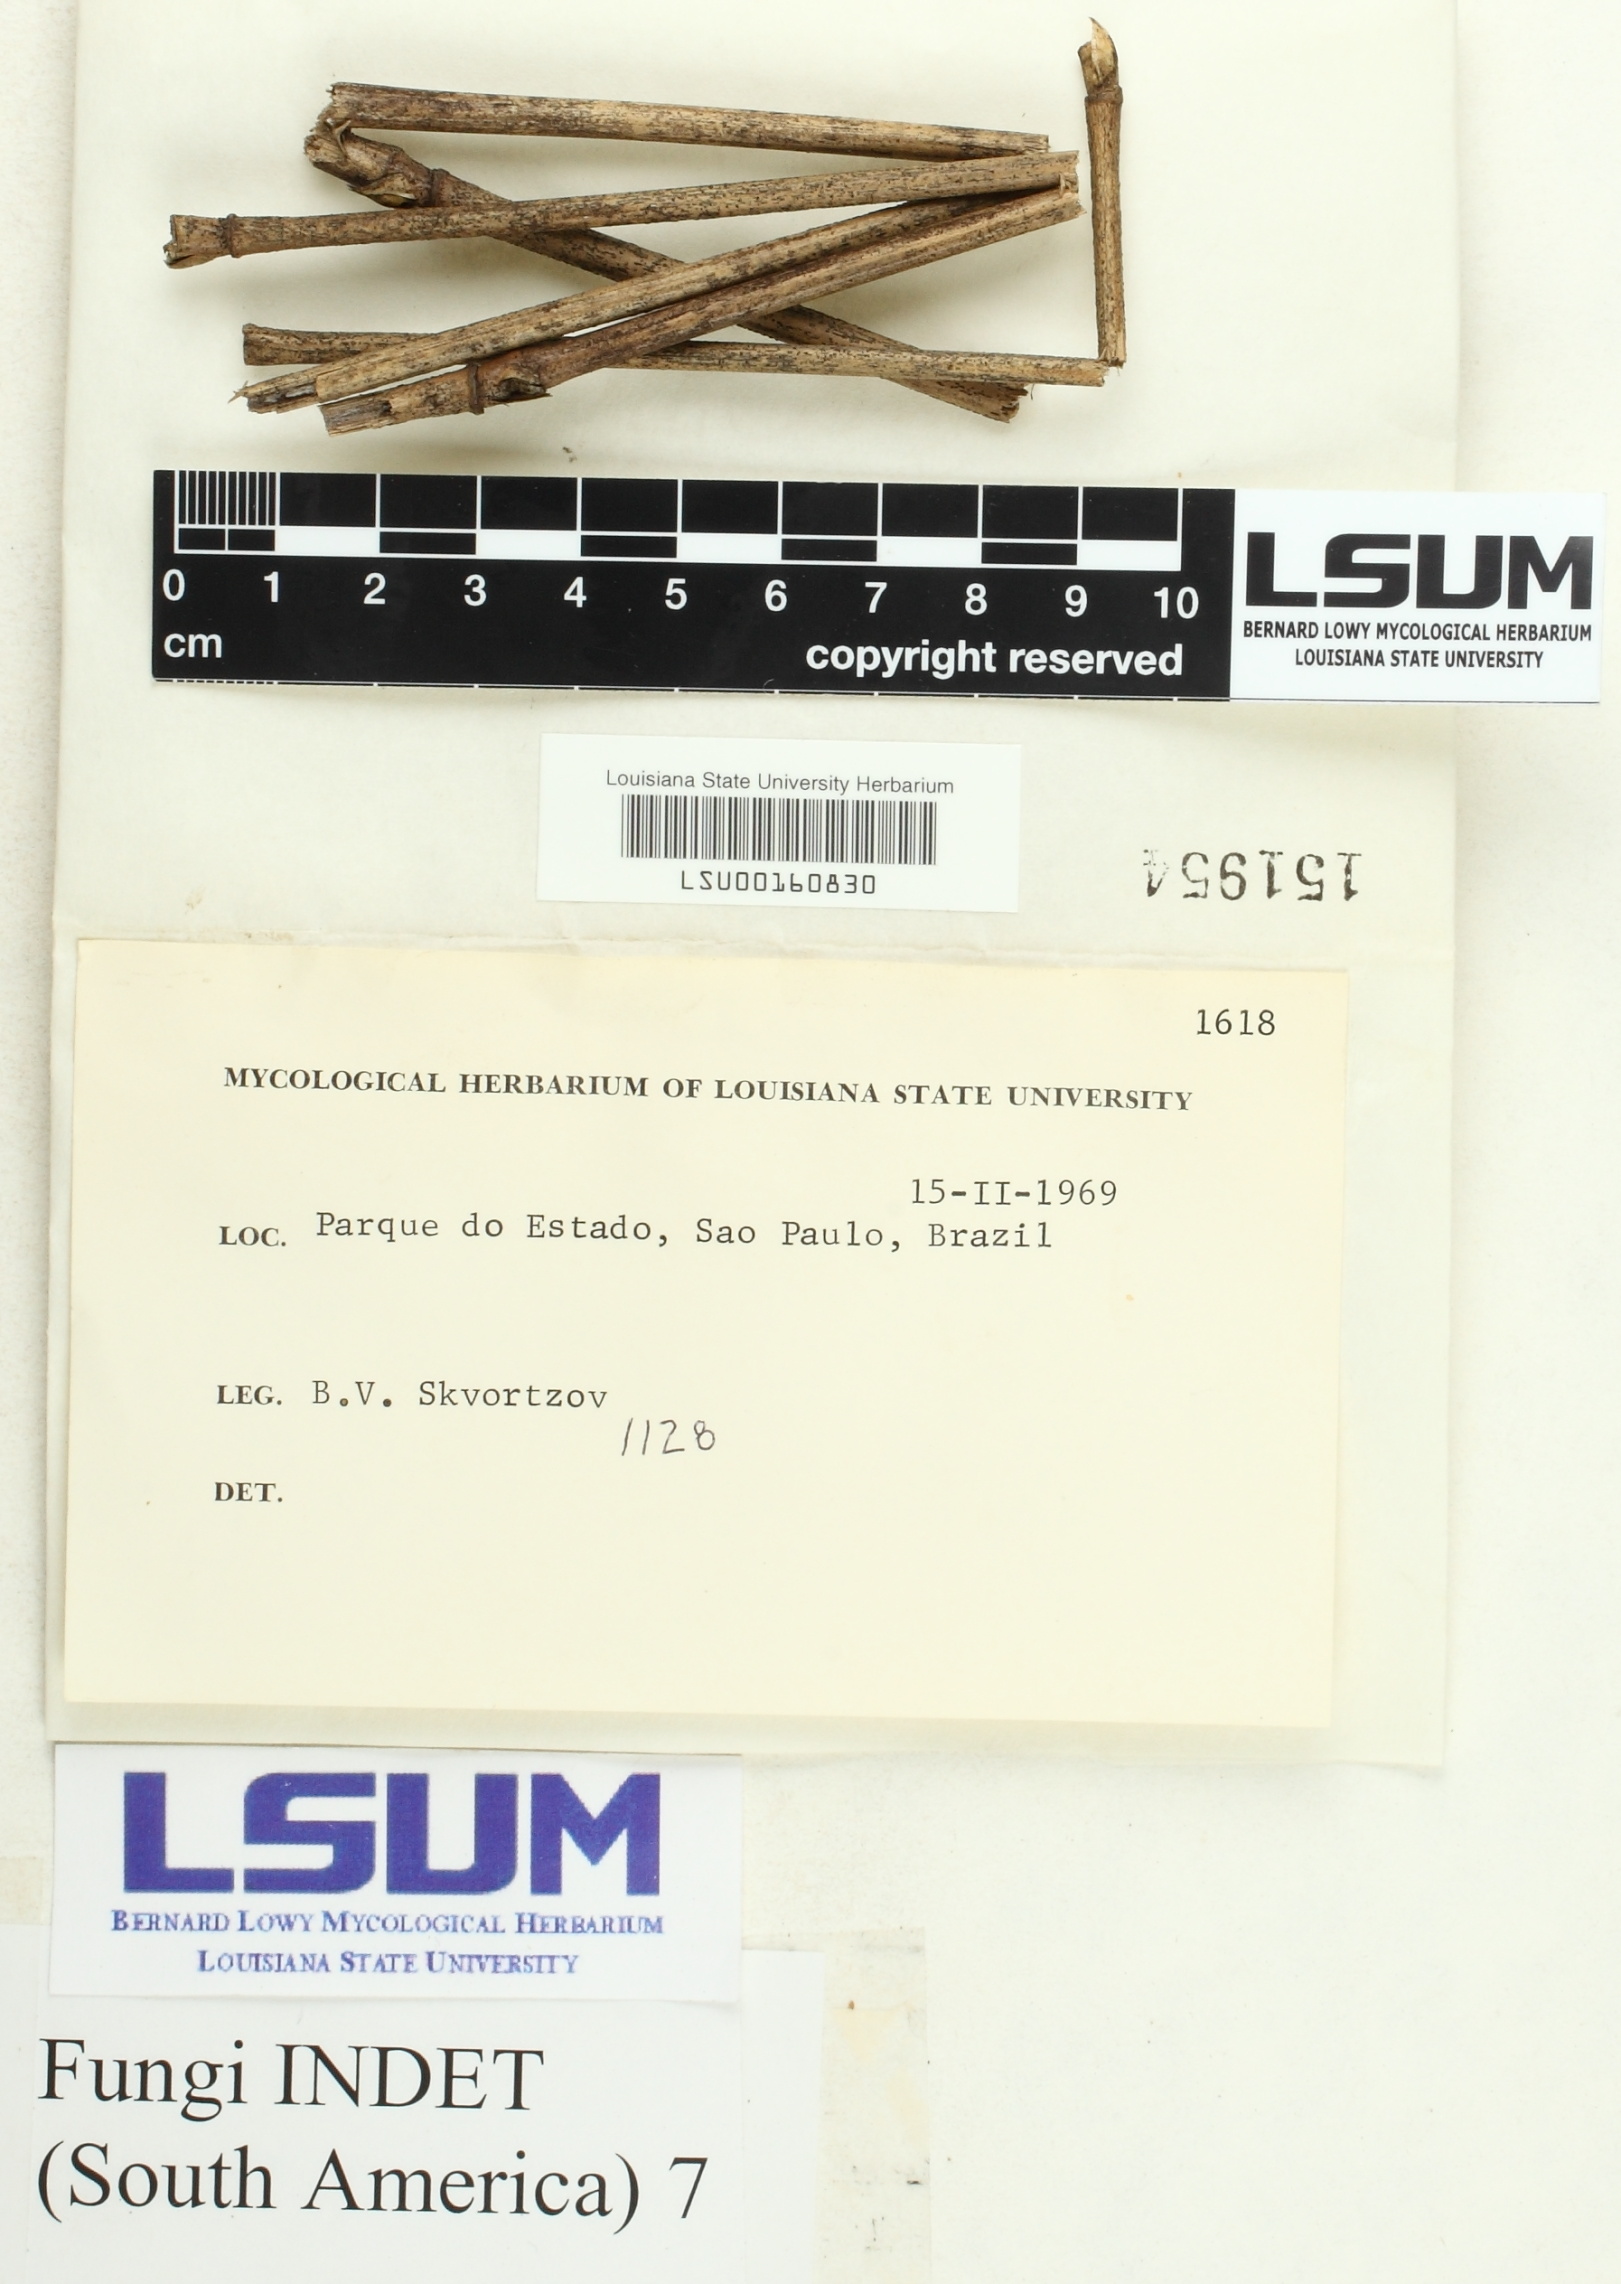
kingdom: Fungi
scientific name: Fungi
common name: Fungi
